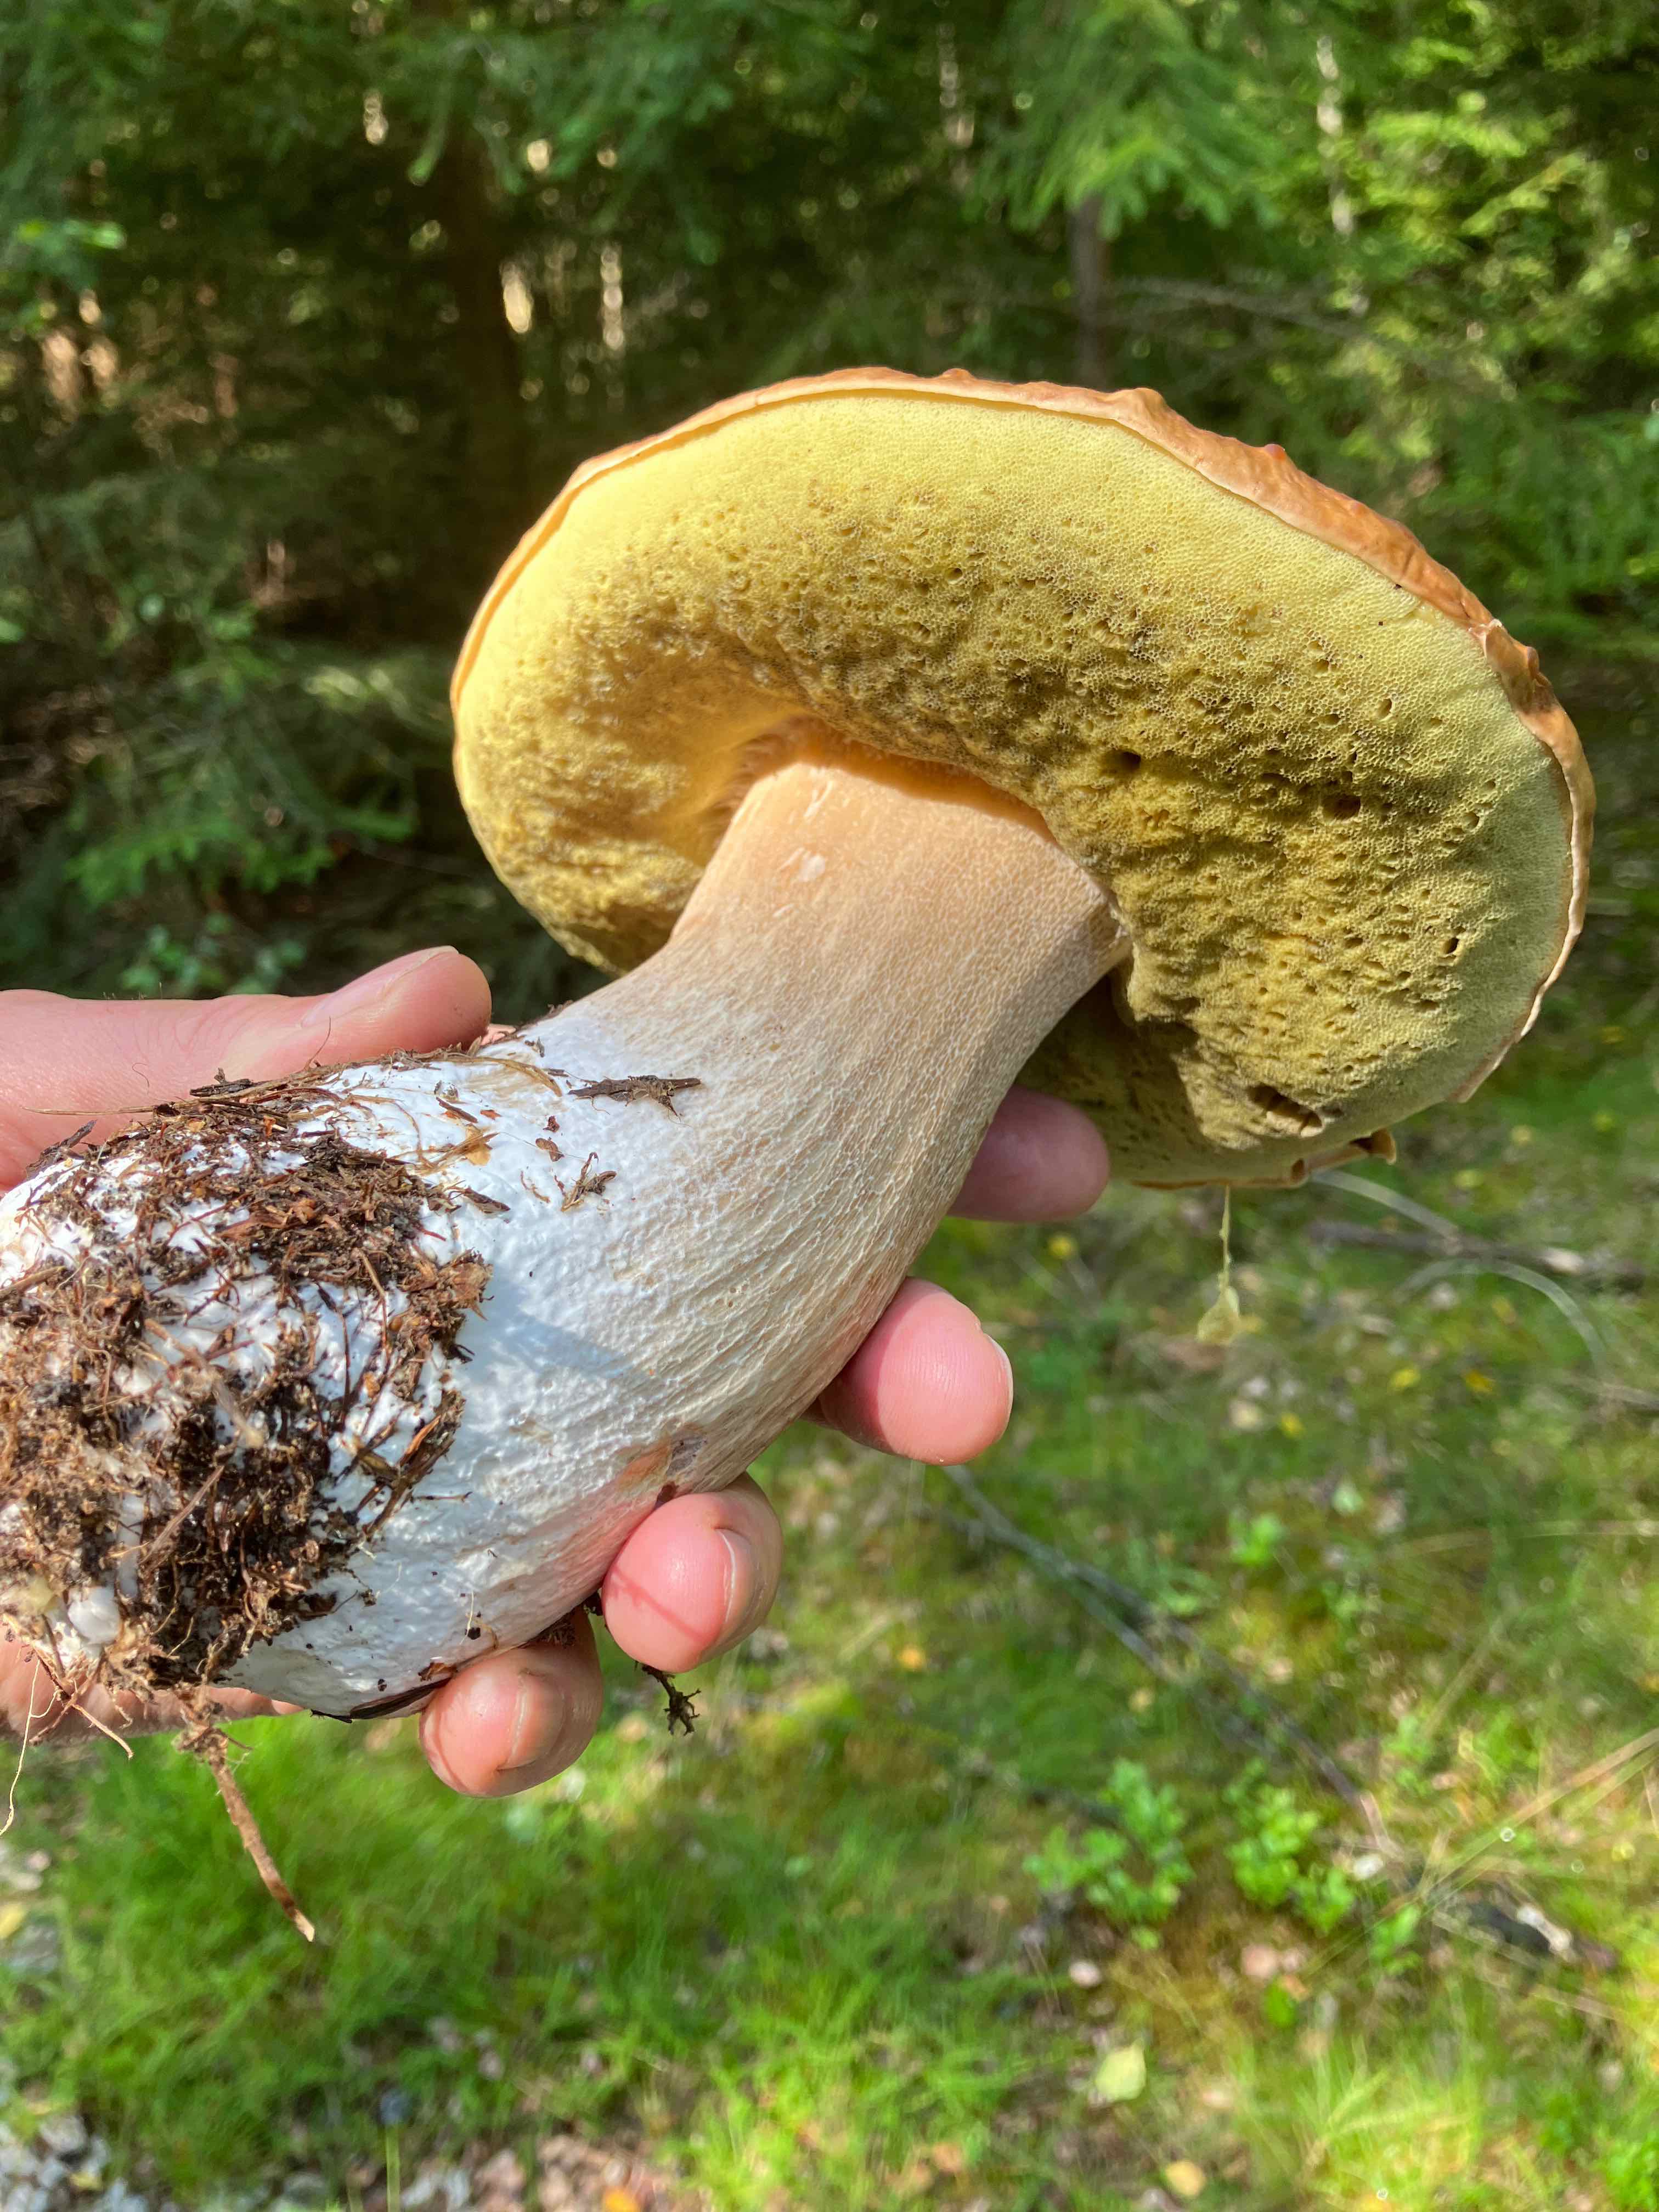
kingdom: Fungi
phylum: Basidiomycota
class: Agaricomycetes
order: Boletales
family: Boletaceae
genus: Boletus
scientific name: Boletus edulis
